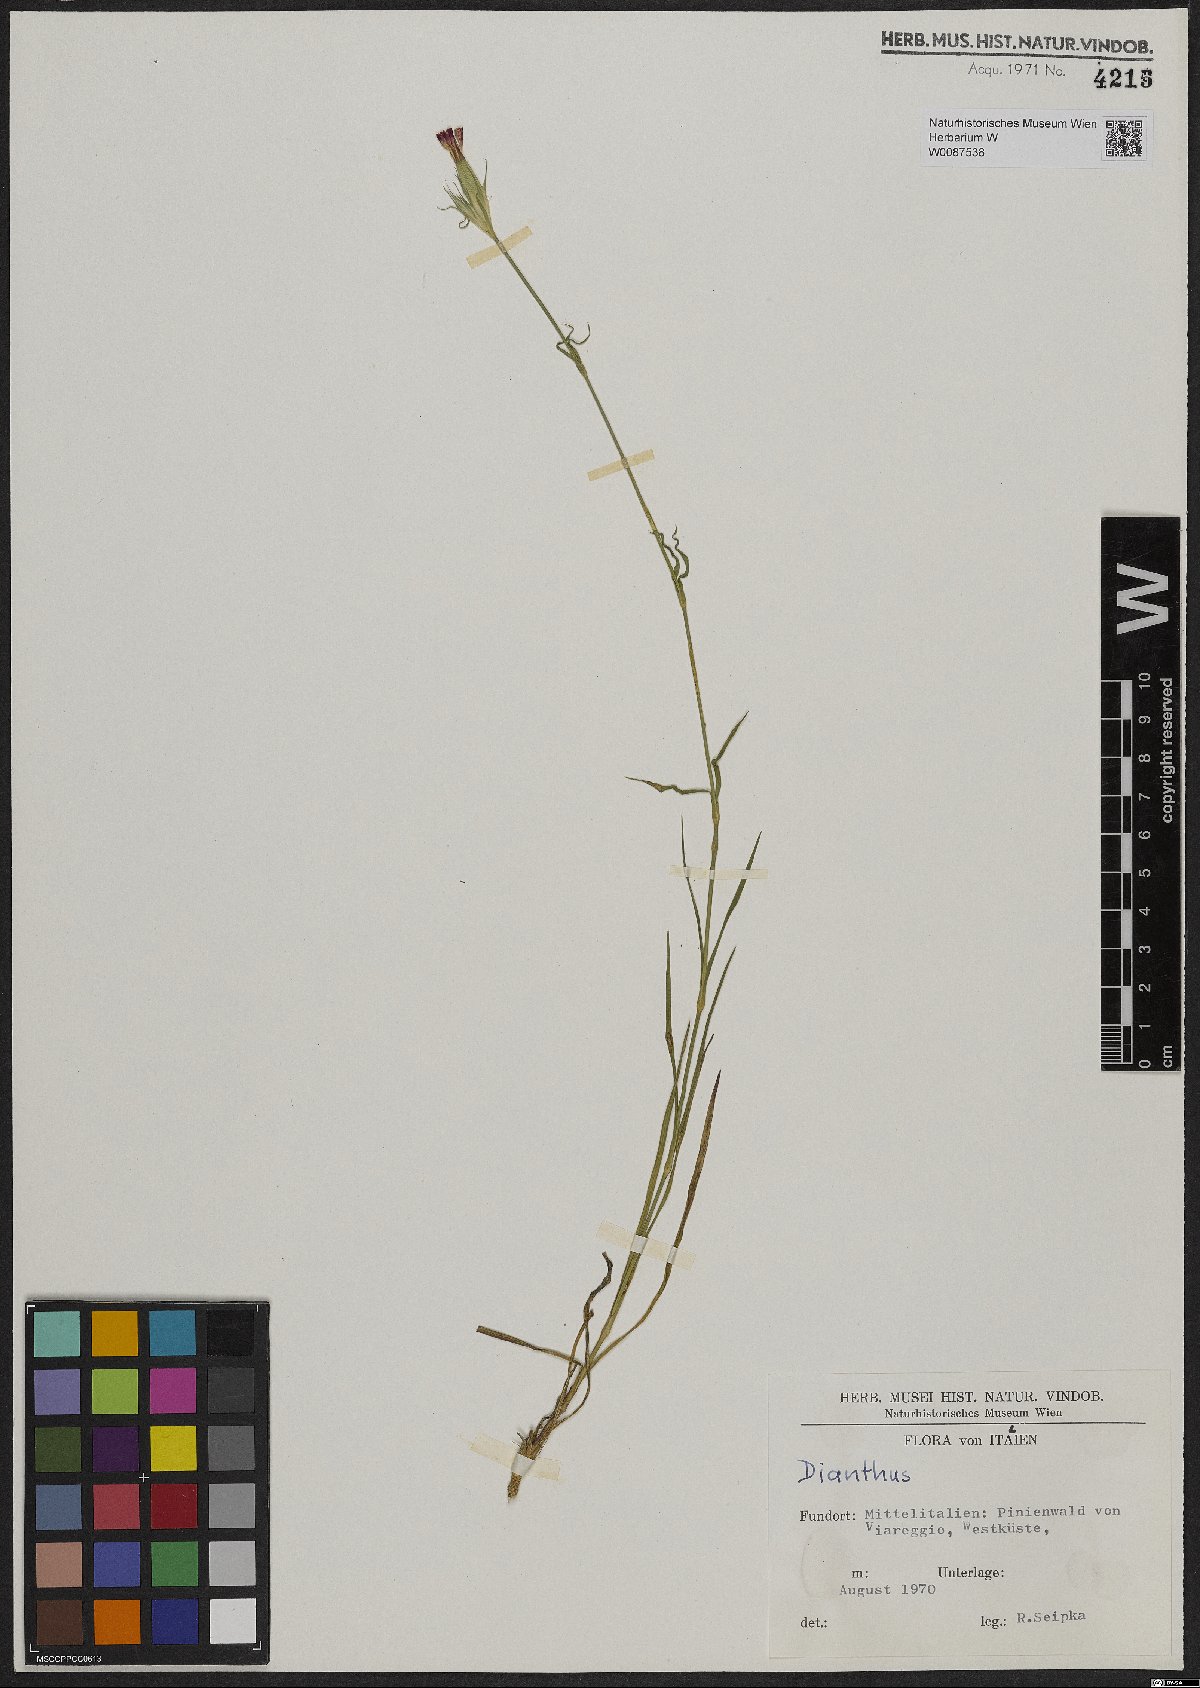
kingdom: Plantae
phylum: Tracheophyta
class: Magnoliopsida
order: Caryophyllales
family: Caryophyllaceae
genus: Dianthus
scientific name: Dianthus
